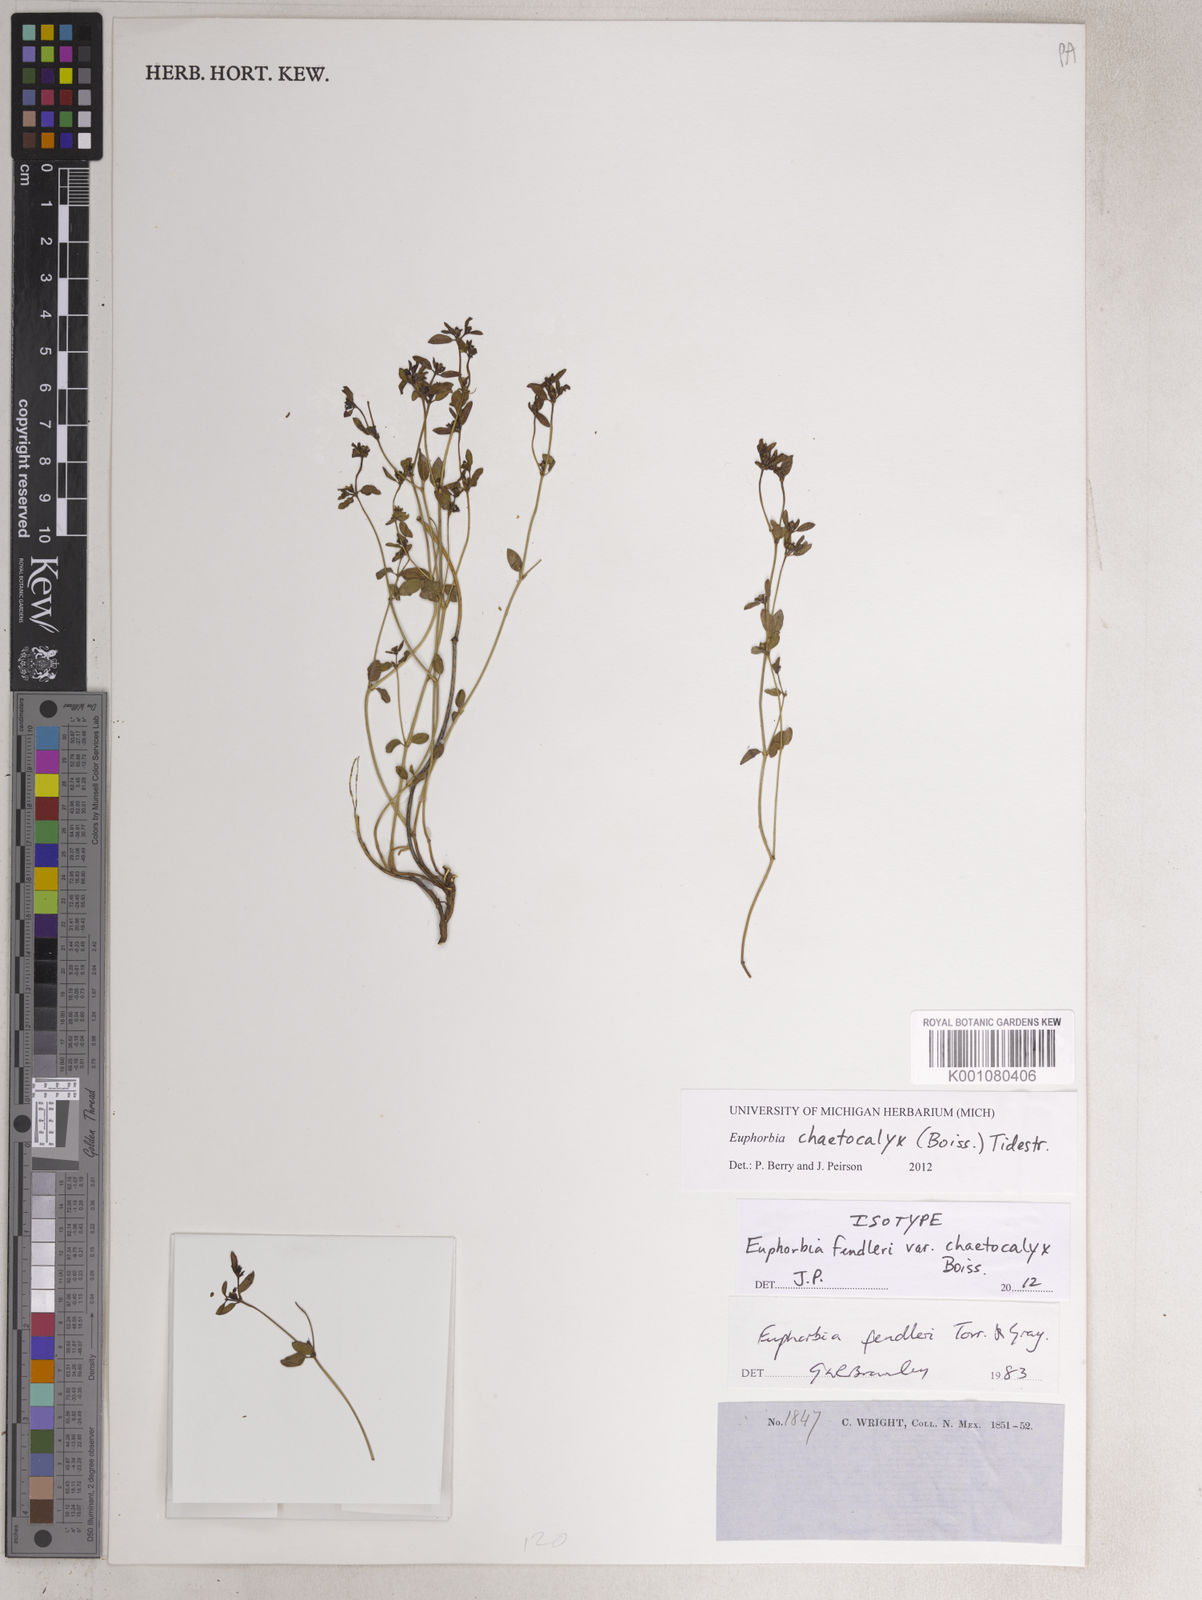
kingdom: Plantae
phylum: Tracheophyta
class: Magnoliopsida
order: Malpighiales
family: Euphorbiaceae
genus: Euphorbia
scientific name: Euphorbia chaetocalyx
